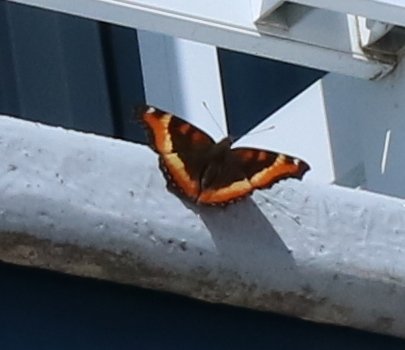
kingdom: Animalia
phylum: Arthropoda
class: Insecta
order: Lepidoptera
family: Nymphalidae
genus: Aglais
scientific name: Aglais milberti
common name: Milbert's Tortoiseshell
